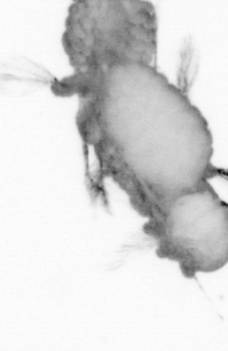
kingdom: Animalia
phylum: Annelida
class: Polychaeta
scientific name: Polychaeta
